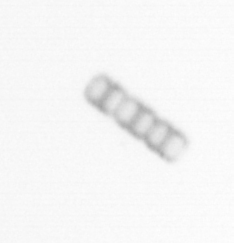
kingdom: Chromista
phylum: Ochrophyta
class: Bacillariophyceae
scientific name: Bacillariophyceae
